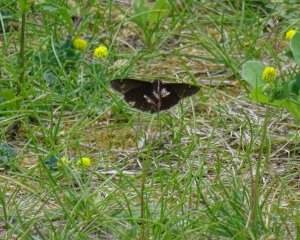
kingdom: Animalia
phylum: Arthropoda
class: Insecta
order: Lepidoptera
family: Hesperiidae
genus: Gesta
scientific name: Gesta
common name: Wild Indigo Duskywing
